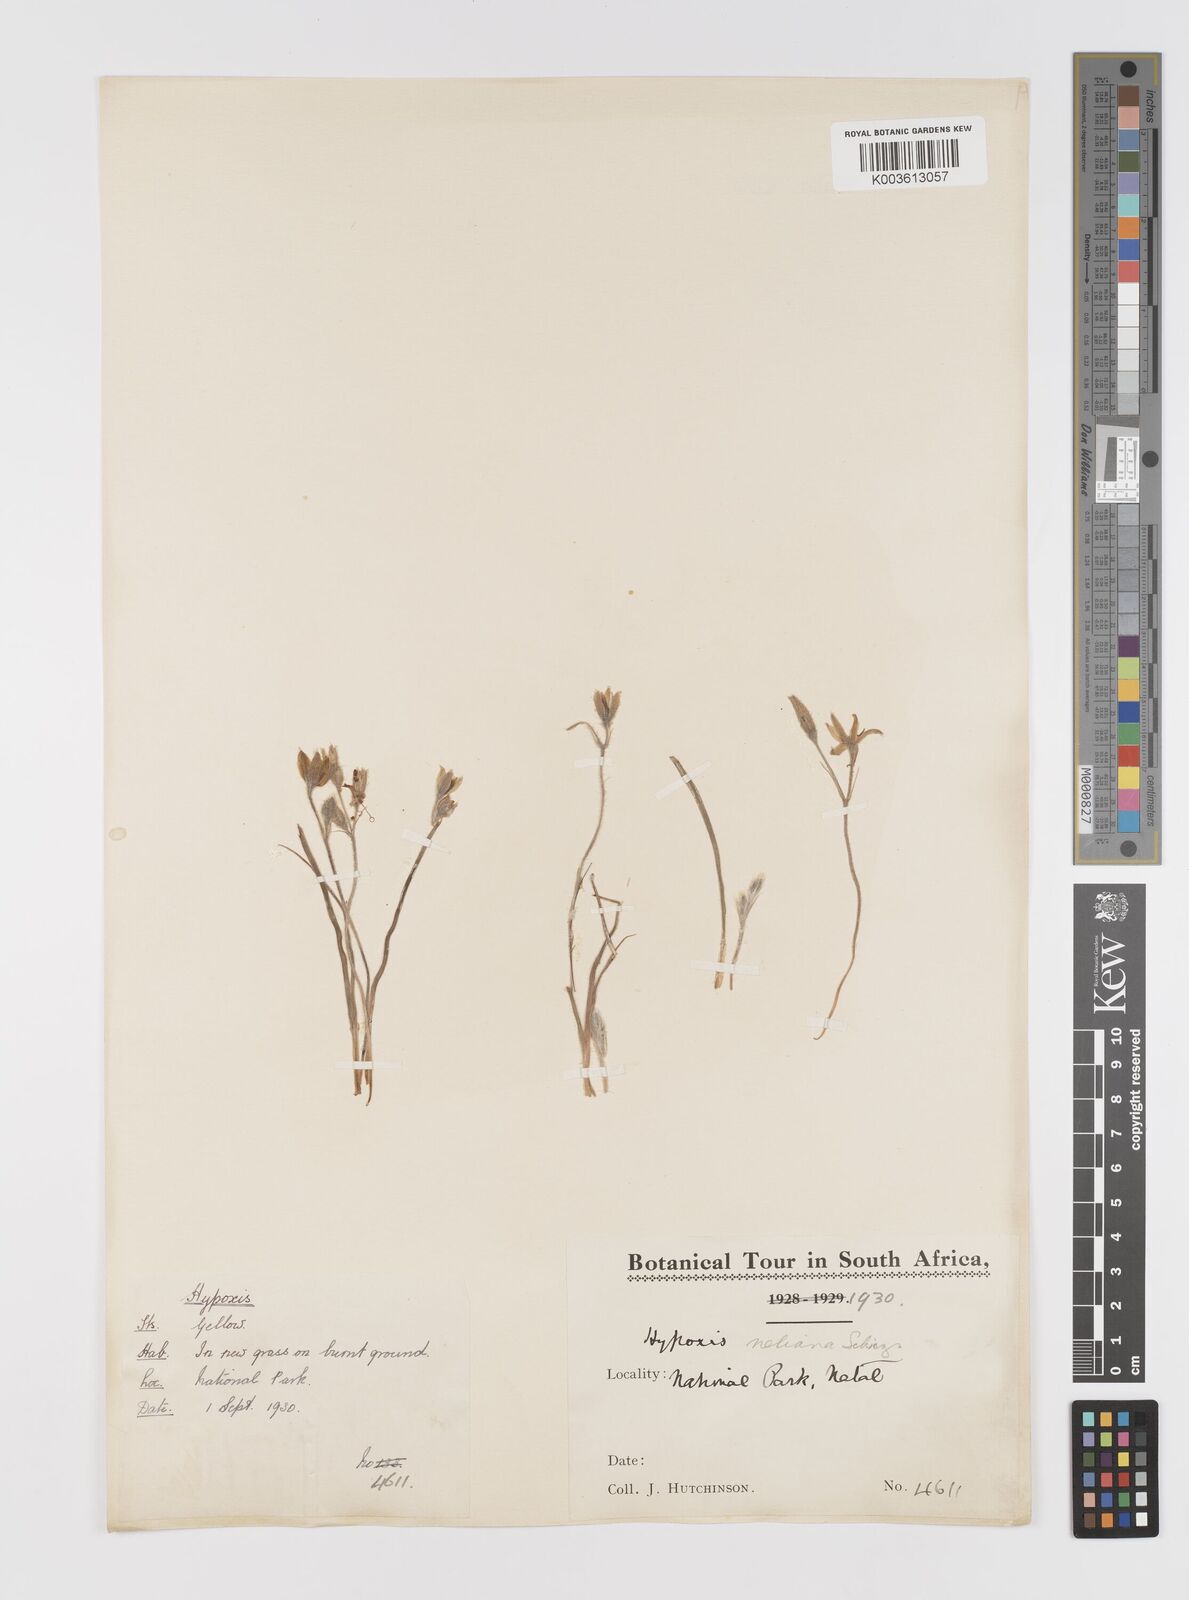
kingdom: Plantae
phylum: Tracheophyta
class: Liliopsida
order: Asparagales
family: Hypoxidaceae
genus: Hypoxis
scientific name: Hypoxis neliana
